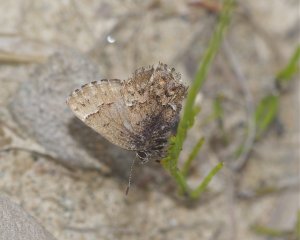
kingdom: Animalia
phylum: Arthropoda
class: Insecta
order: Lepidoptera
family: Lycaenidae
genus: Incisalia
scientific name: Incisalia lanoraieensis
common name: Bog Elfin
